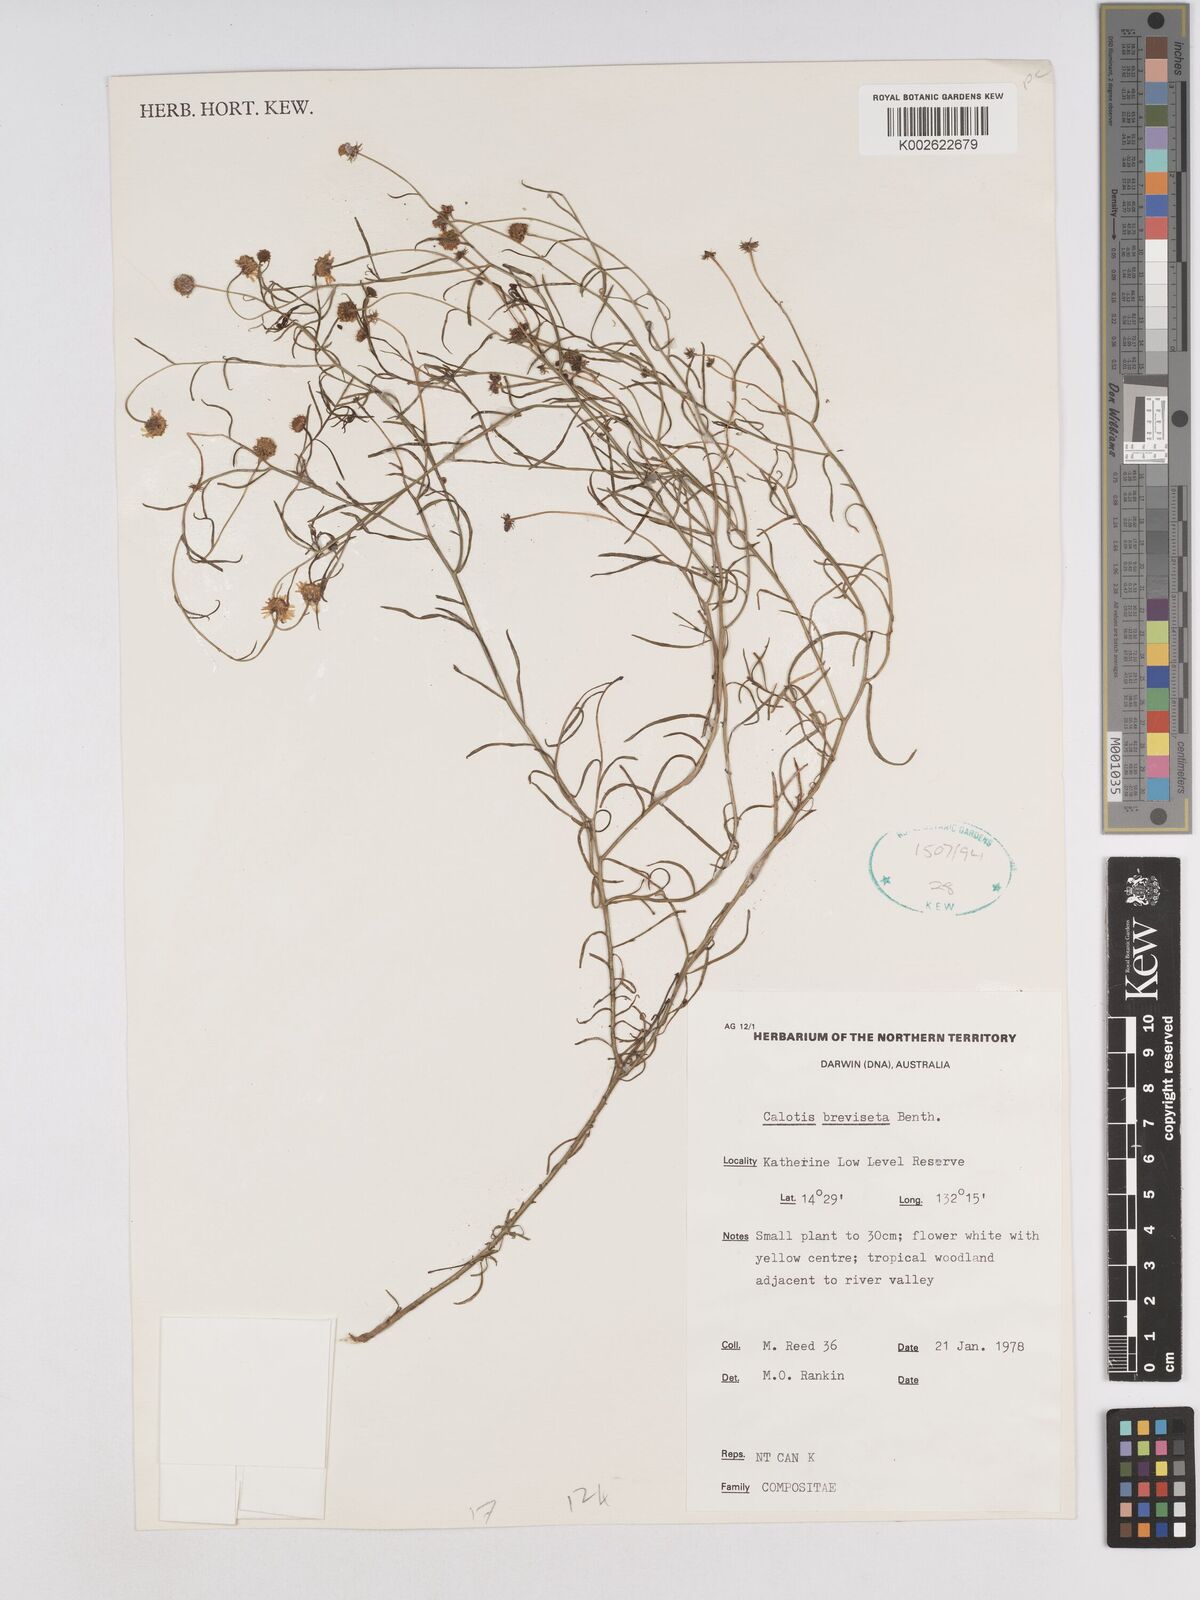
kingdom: Plantae
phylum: Tracheophyta
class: Magnoliopsida
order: Asterales
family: Asteraceae
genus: Calotis
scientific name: Calotis breviseta
